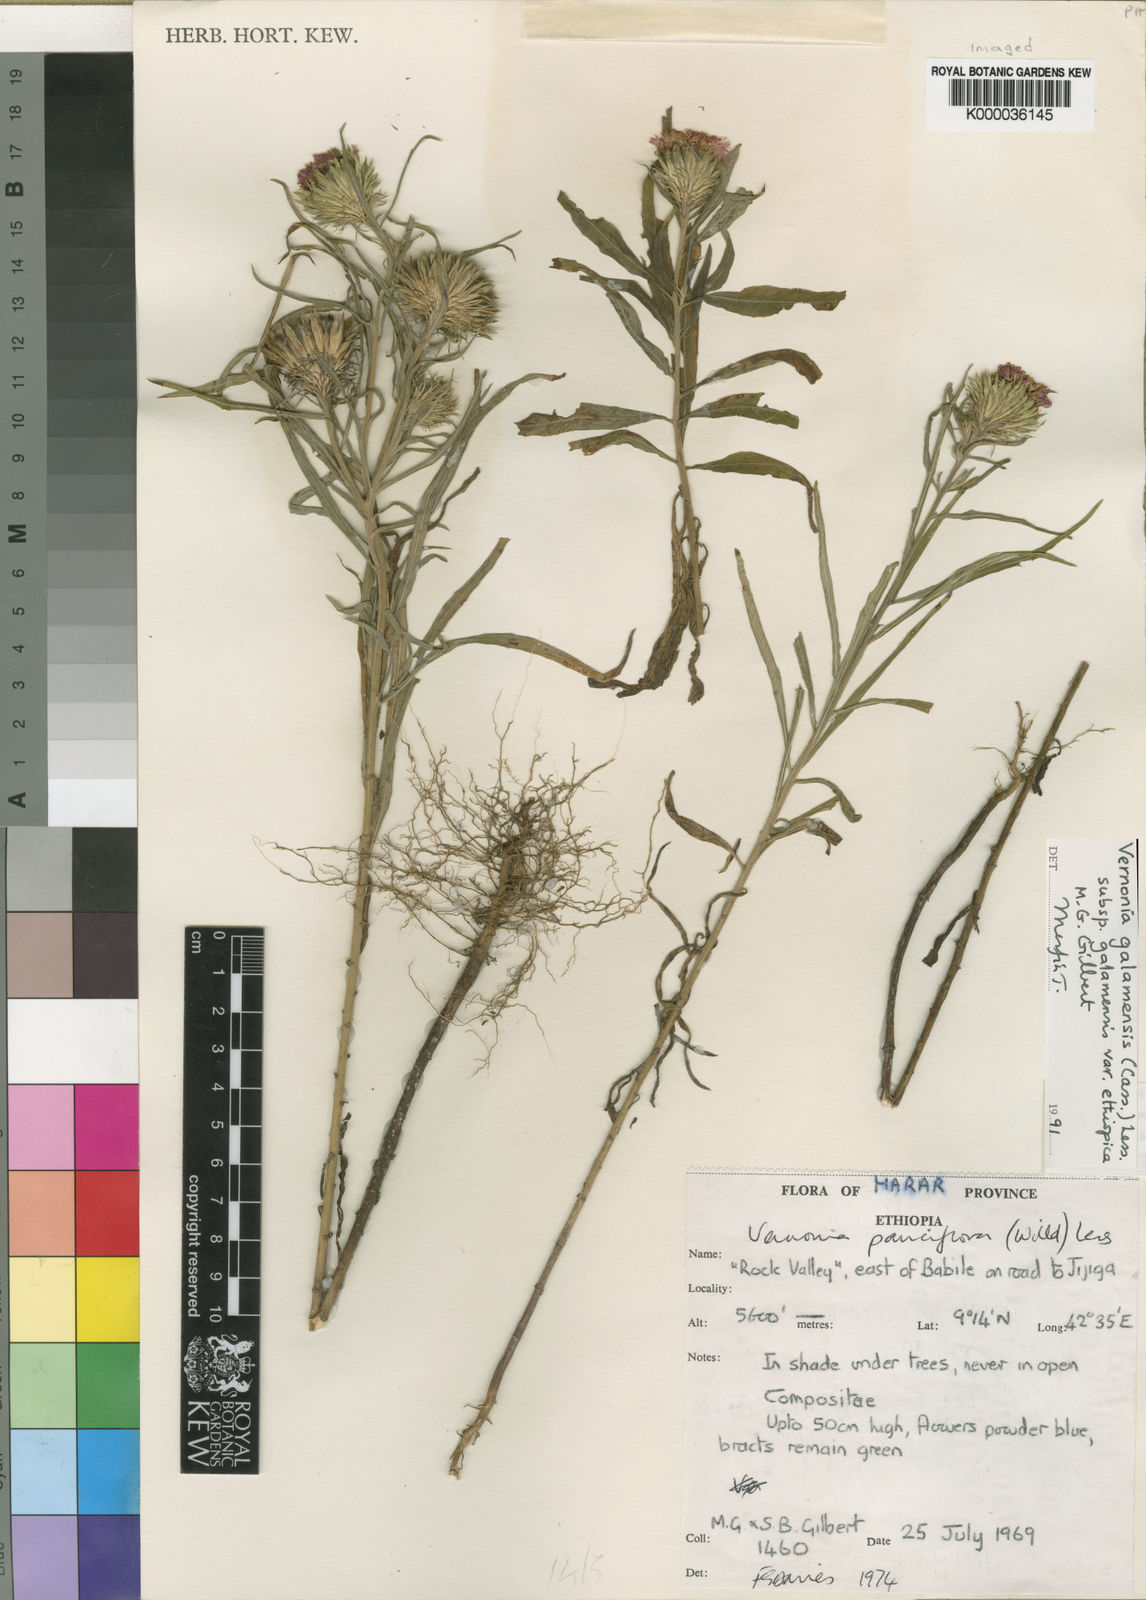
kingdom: Plantae
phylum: Tracheophyta
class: Magnoliopsida
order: Asterales
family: Asteraceae
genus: Vernonia
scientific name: Vernonia galamensis
